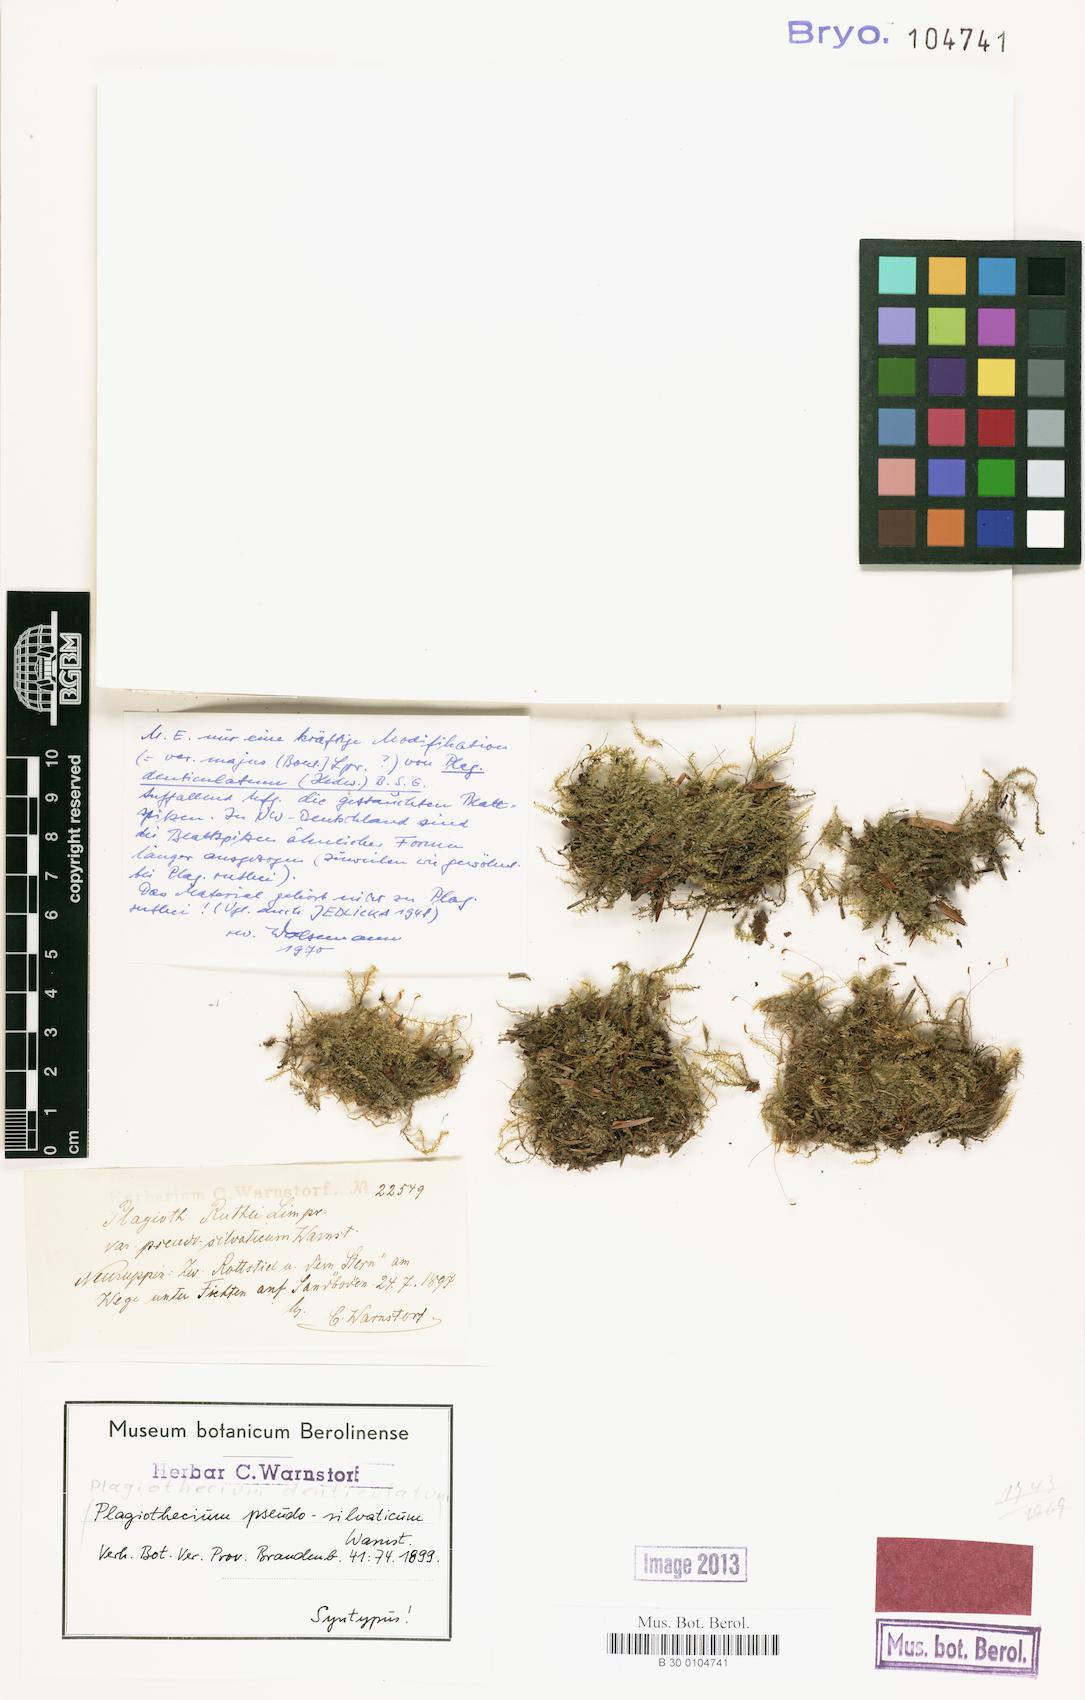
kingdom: Plantae
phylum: Bryophyta
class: Bryopsida
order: Hypnales
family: Plagiotheciaceae
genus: Plagiothecium
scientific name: Plagiothecium denticulatum
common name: Dented silk moss
